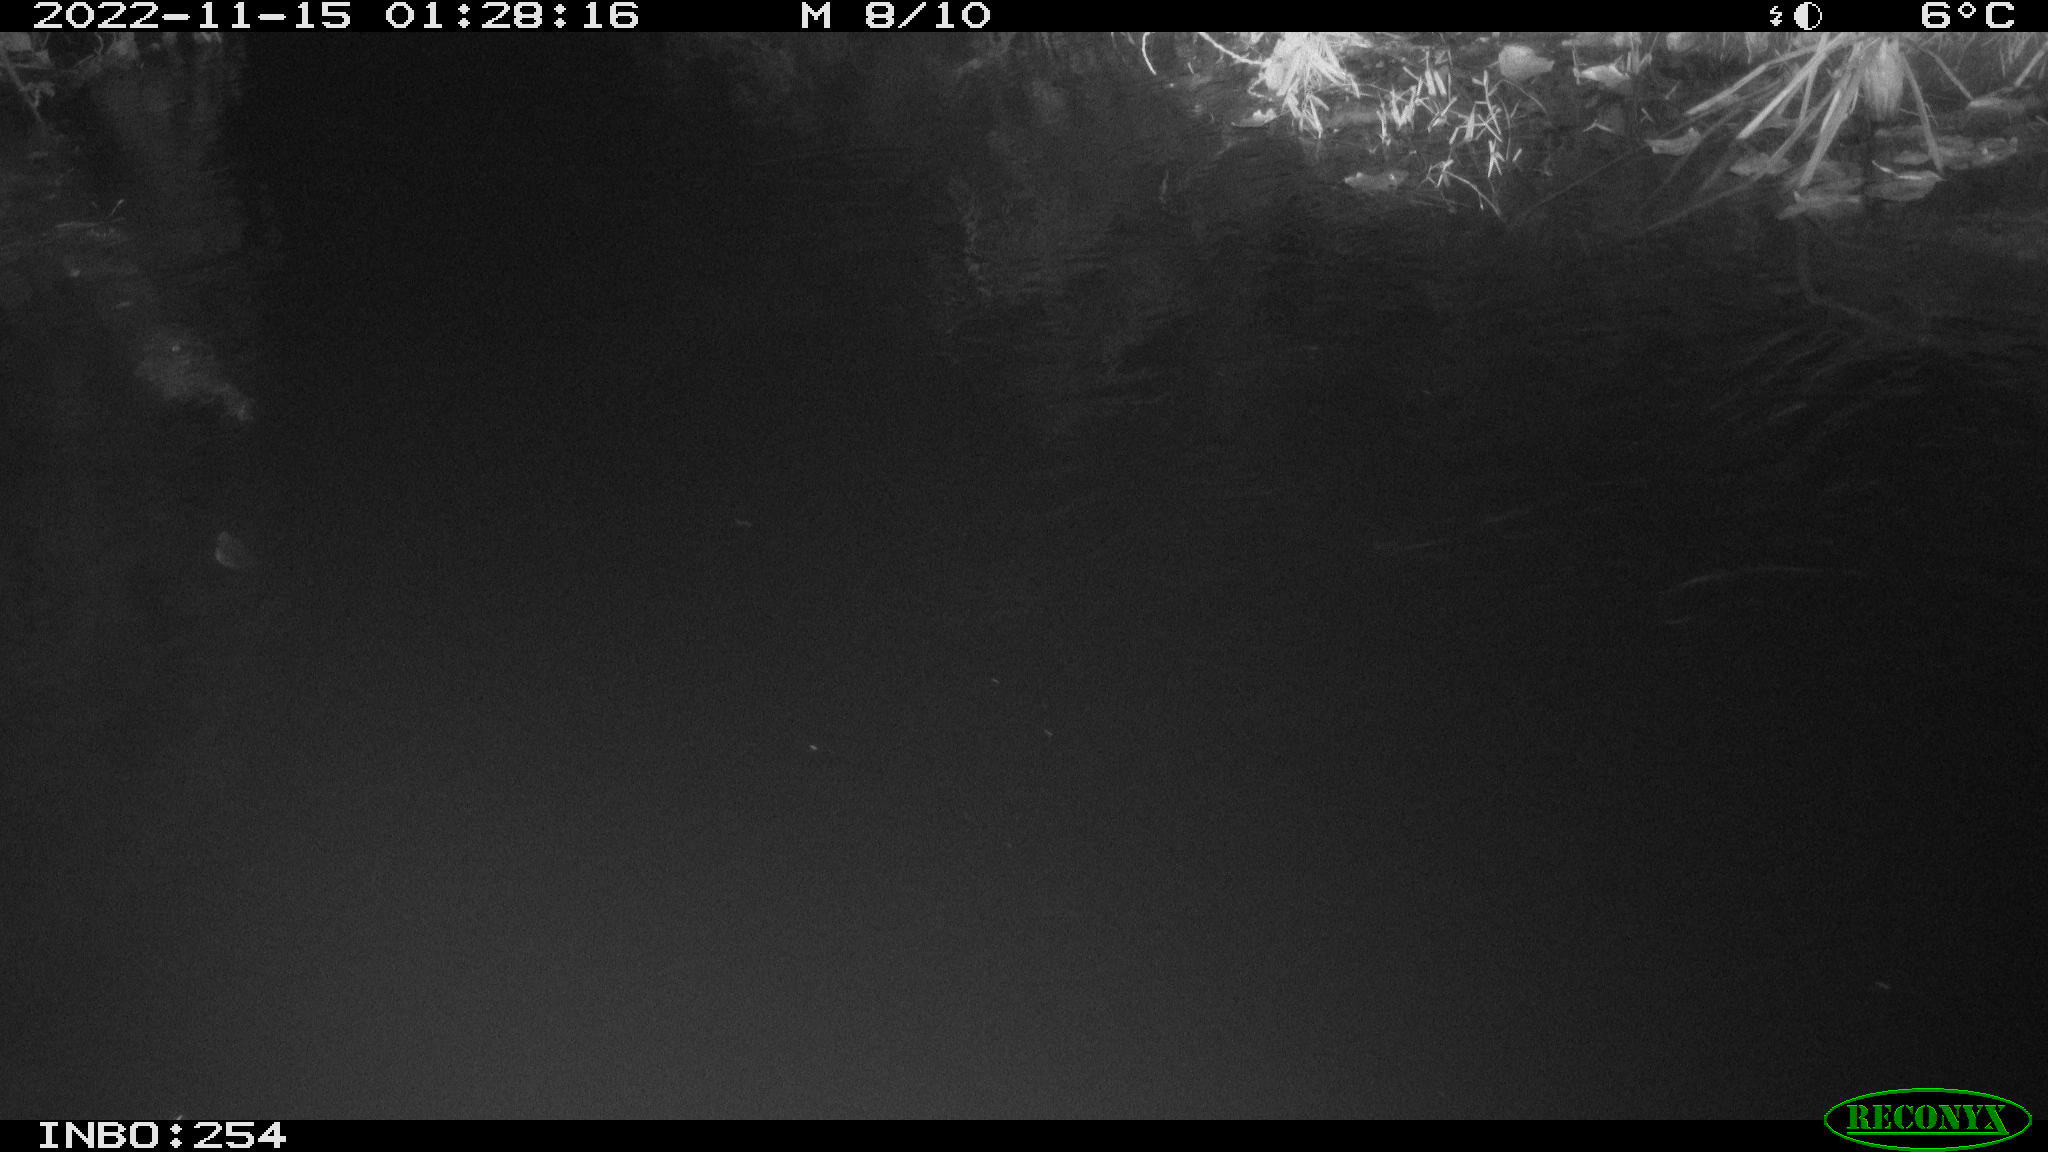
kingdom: Animalia
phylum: Chordata
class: Aves
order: Anseriformes
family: Anatidae
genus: Anas
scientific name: Anas
